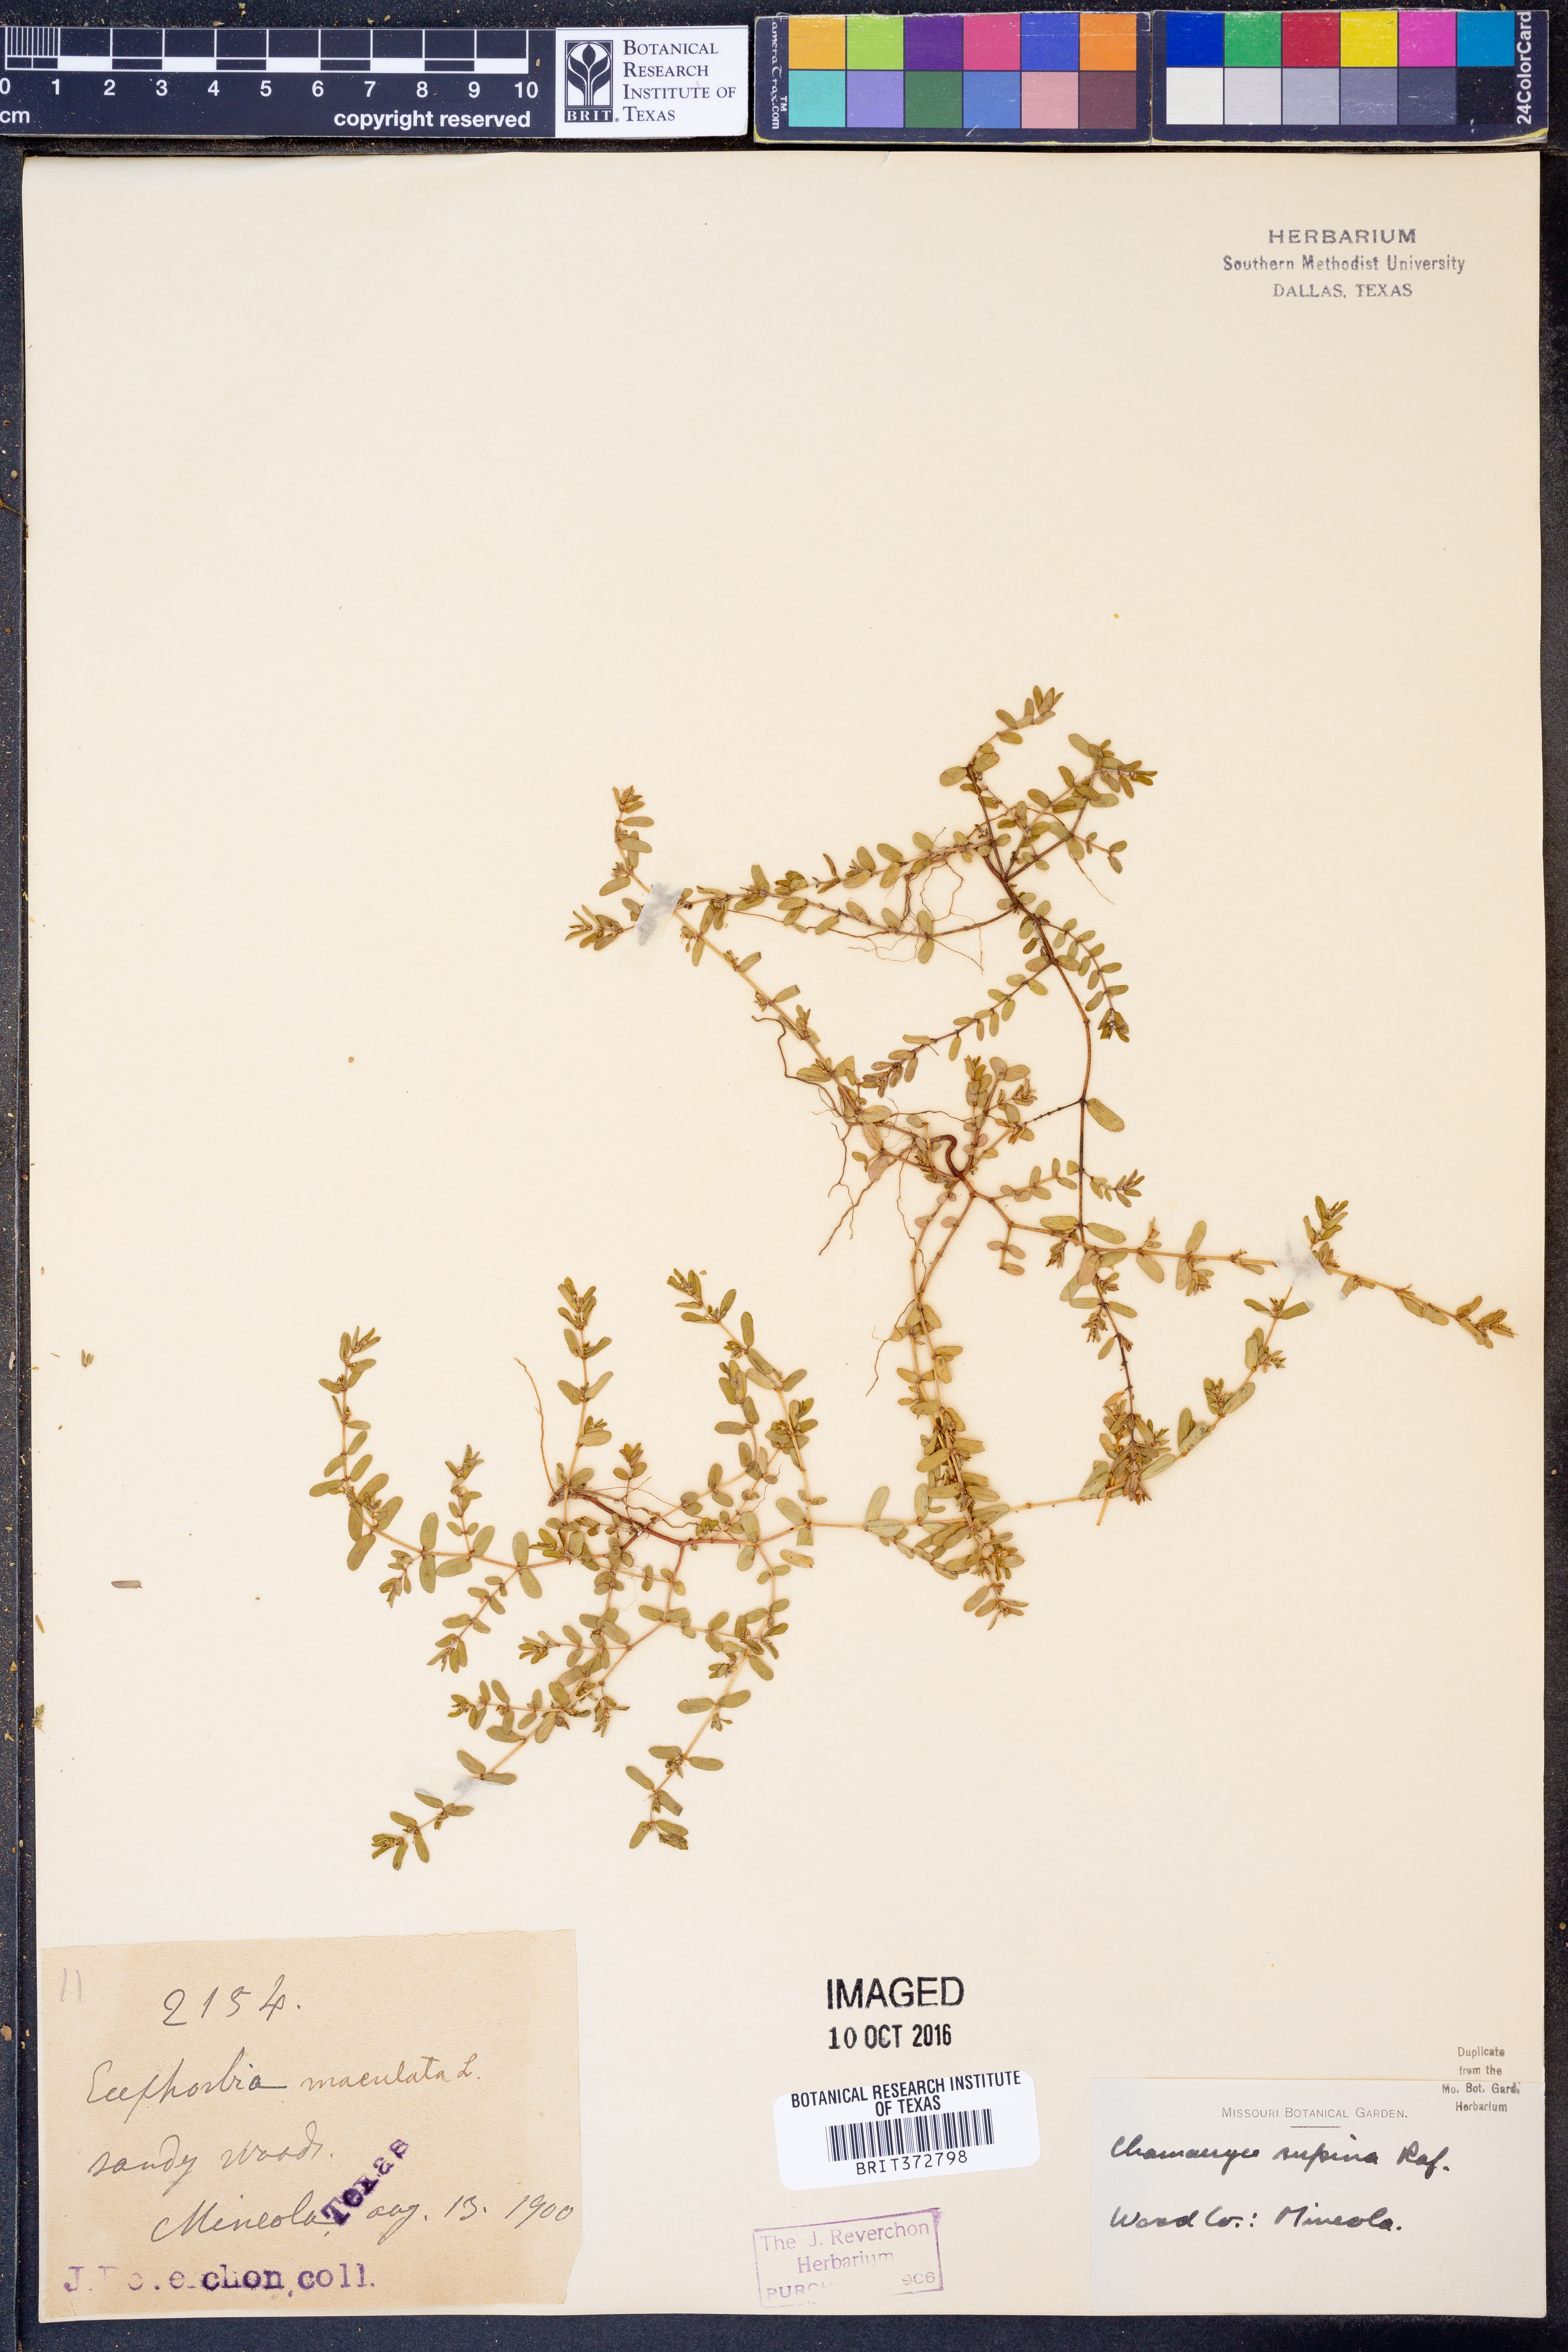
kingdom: Plantae
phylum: Tracheophyta
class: Magnoliopsida
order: Malpighiales
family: Euphorbiaceae
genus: Euphorbia
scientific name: Euphorbia maculata
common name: Spotted spurge
